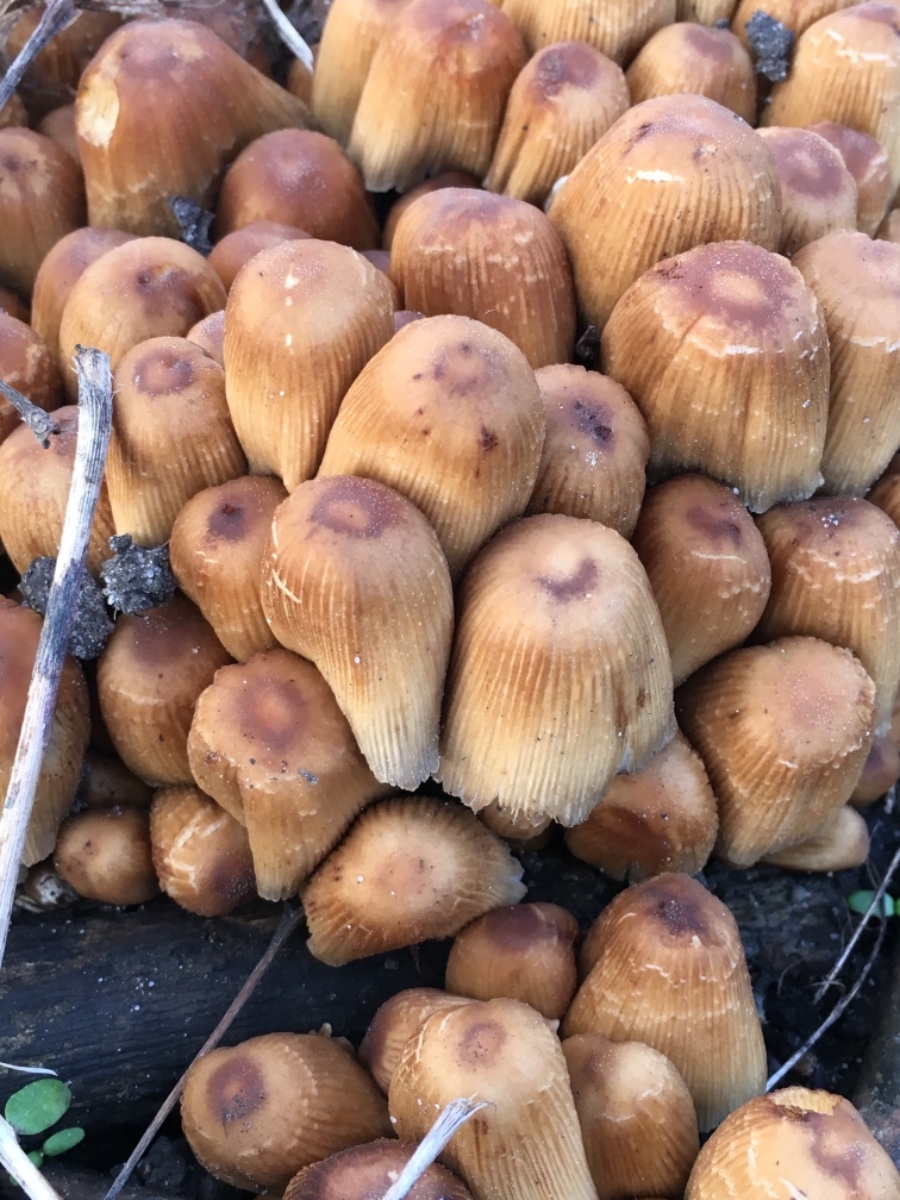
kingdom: Fungi
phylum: Basidiomycota
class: Agaricomycetes
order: Agaricales
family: Psathyrellaceae
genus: Coprinellus
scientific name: Coprinellus micaceus
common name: glimmer-blækhat
